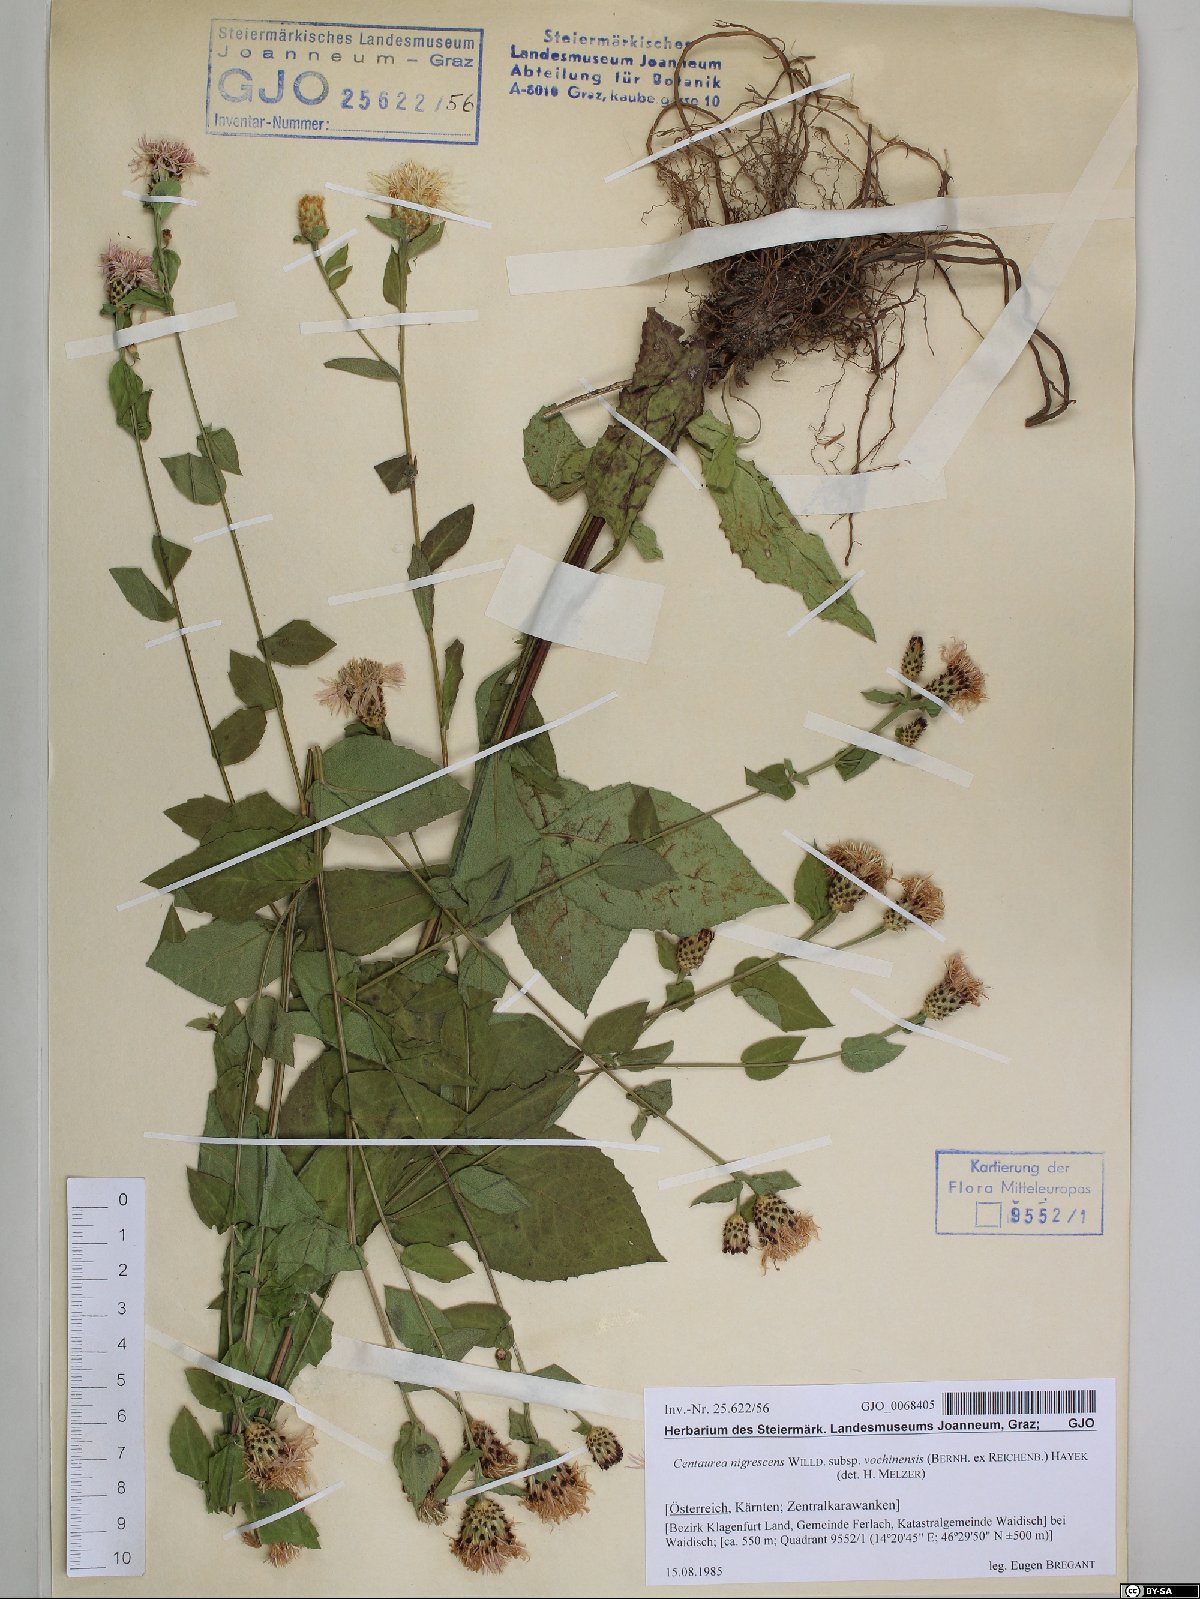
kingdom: Plantae
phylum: Tracheophyta
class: Magnoliopsida
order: Asterales
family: Asteraceae
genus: Centaurea
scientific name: Centaurea carniolica
